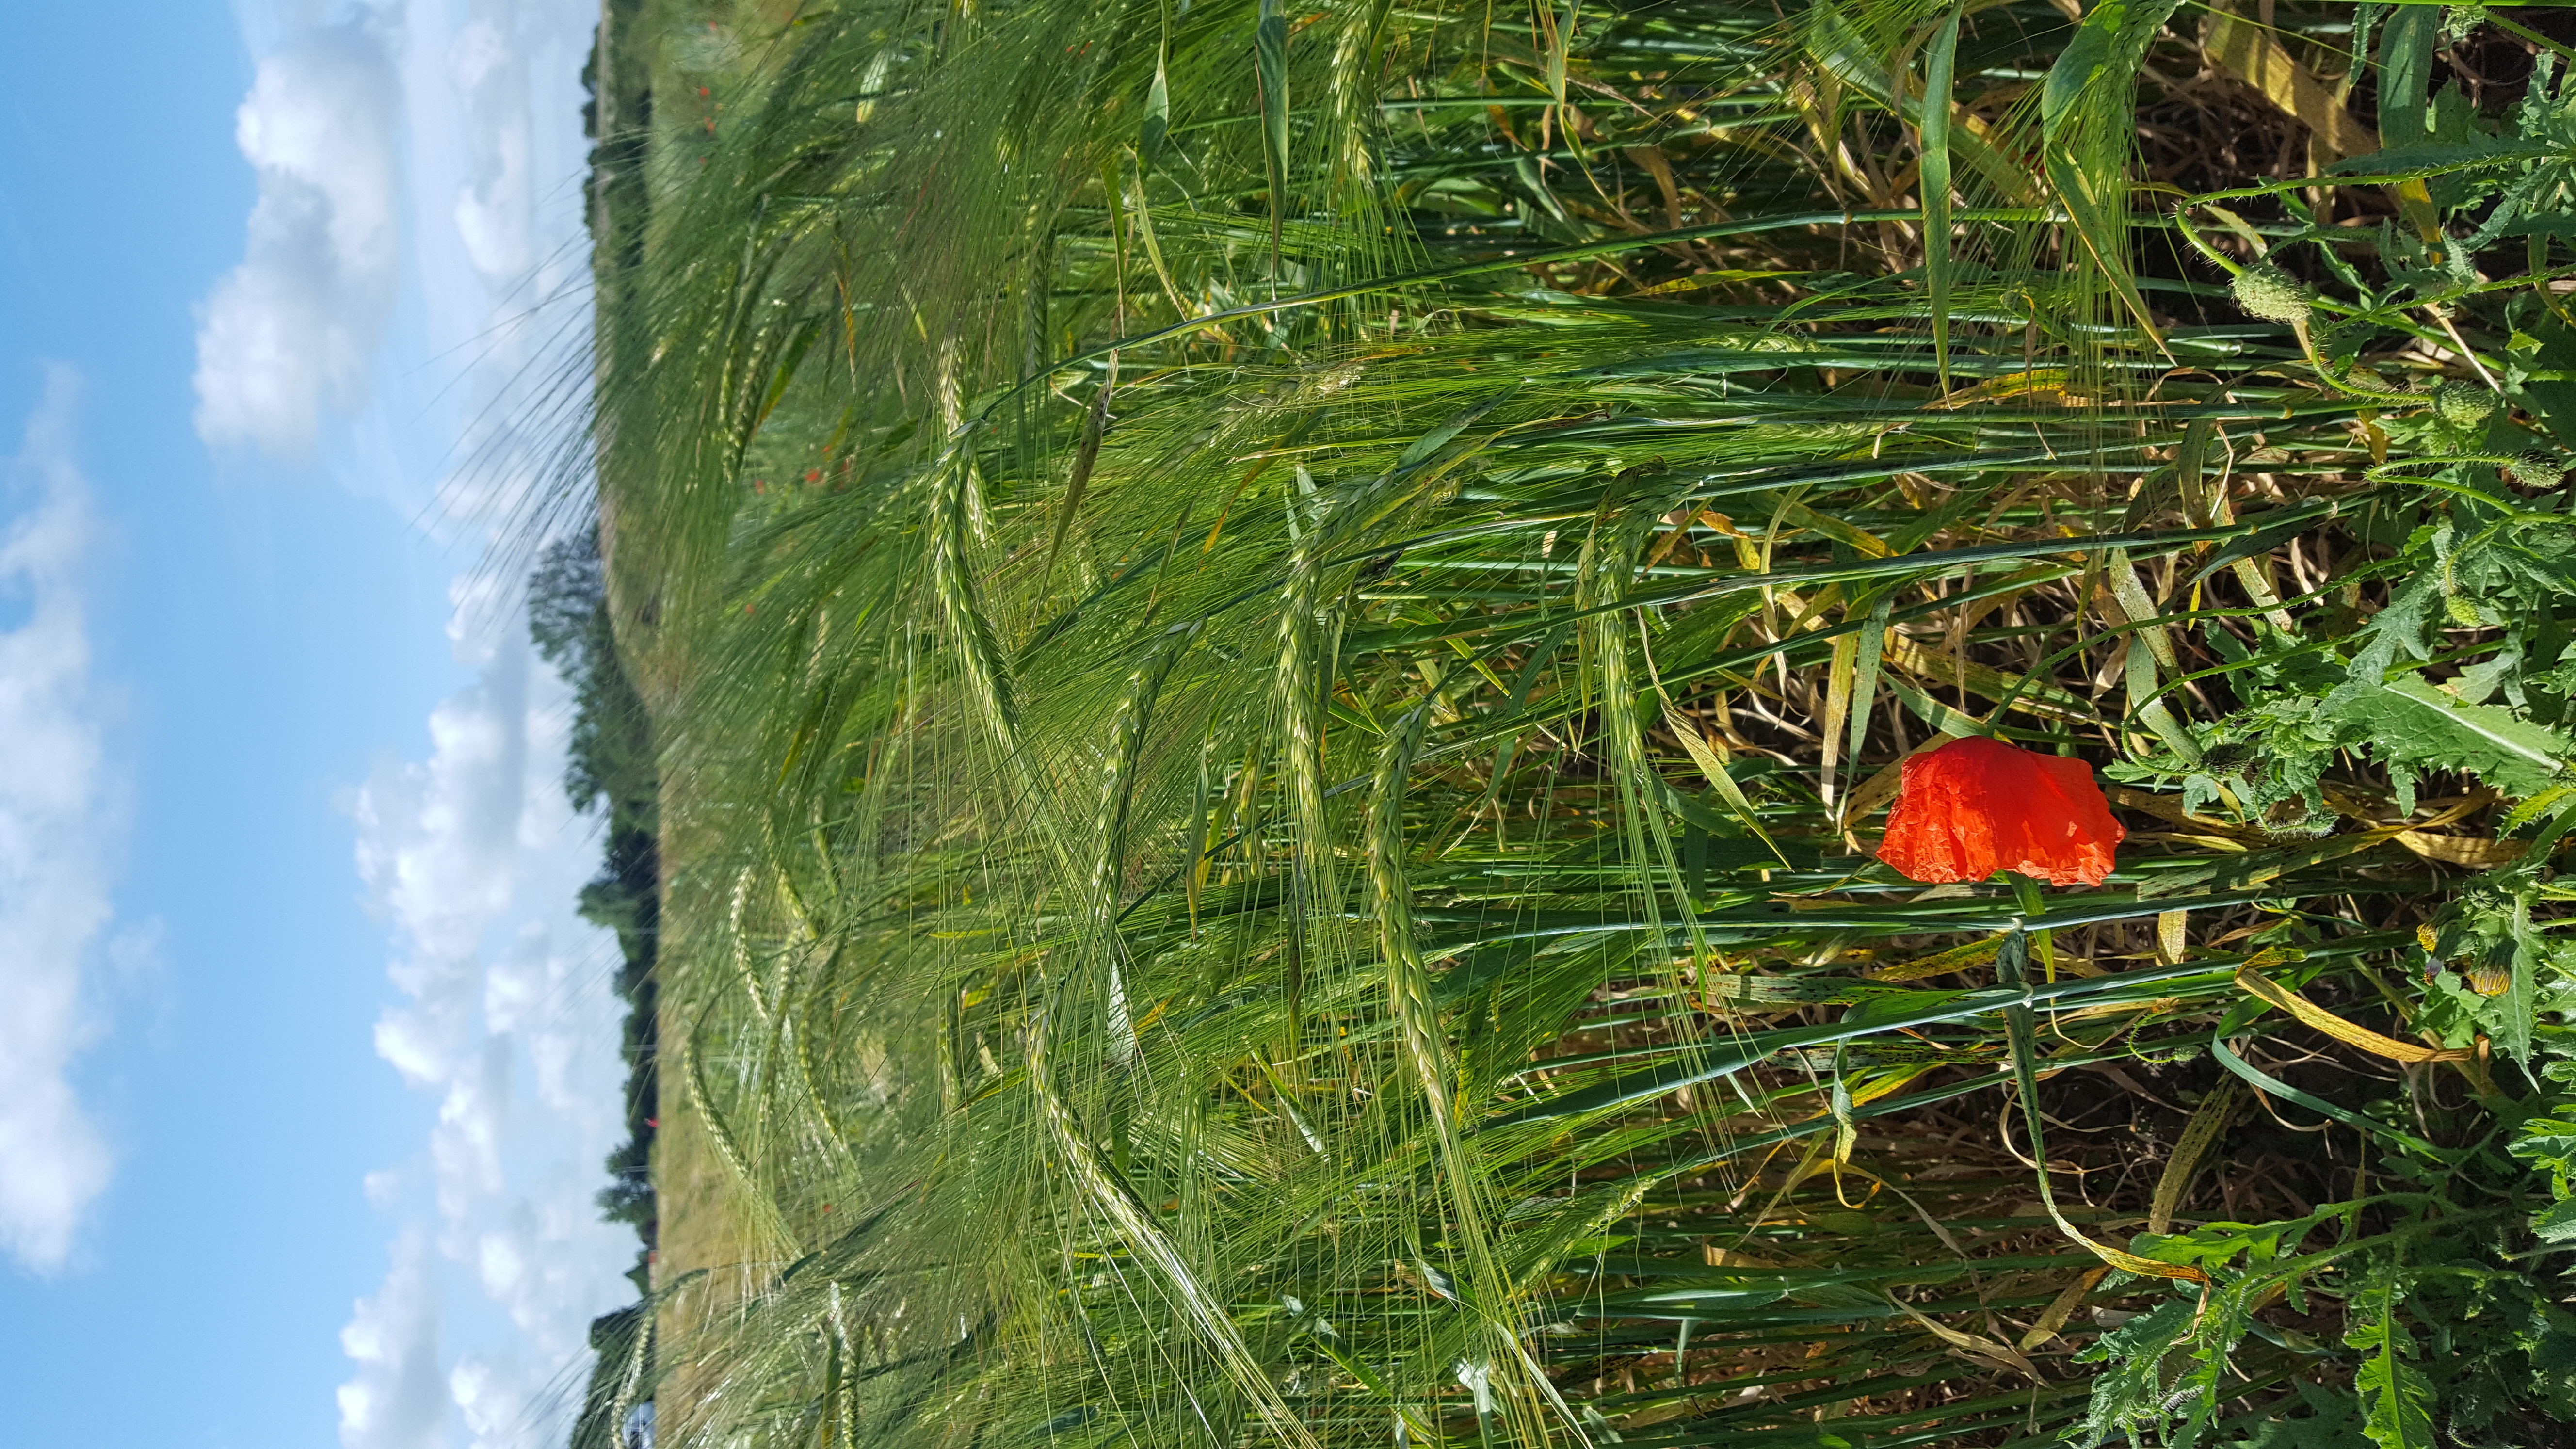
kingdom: Plantae
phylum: Tracheophyta
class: Liliopsida
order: Poales
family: Poaceae
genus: Hordeum
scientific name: Hordeum vulgare
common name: Common barley
